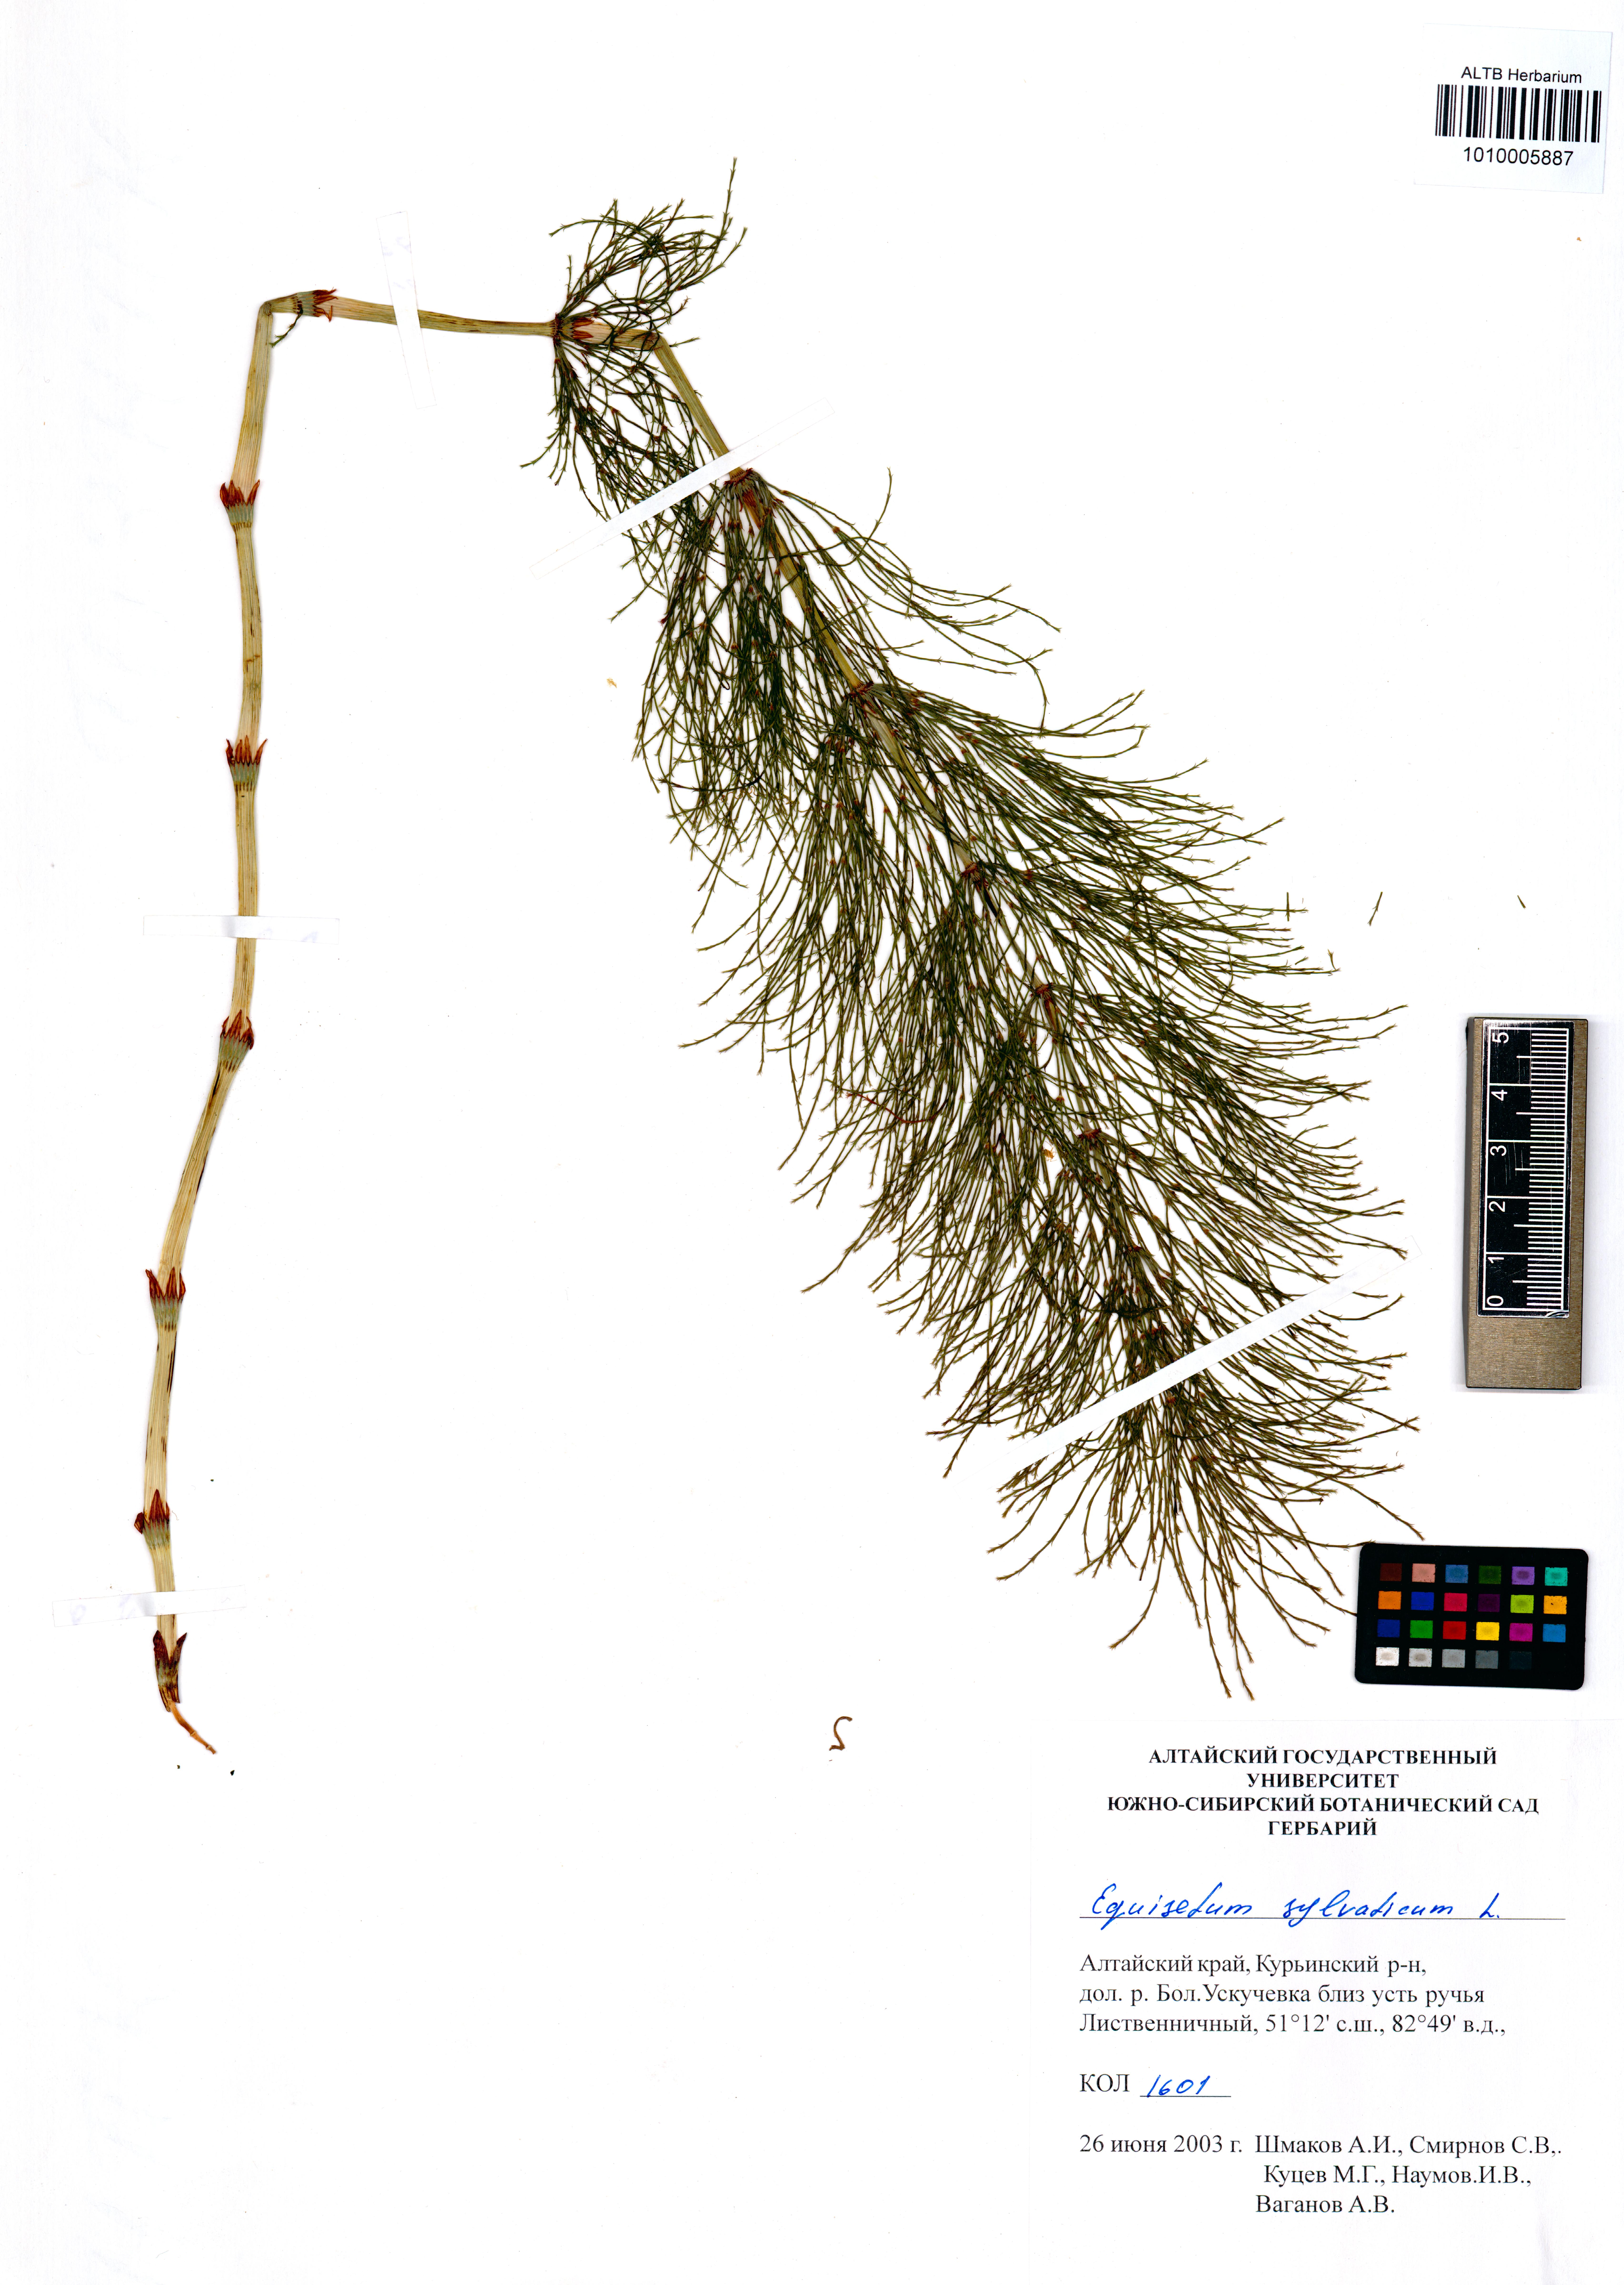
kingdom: Plantae
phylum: Tracheophyta
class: Polypodiopsida
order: Equisetales
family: Equisetaceae
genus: Equisetum
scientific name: Equisetum sylvaticum
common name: Wood horsetail
